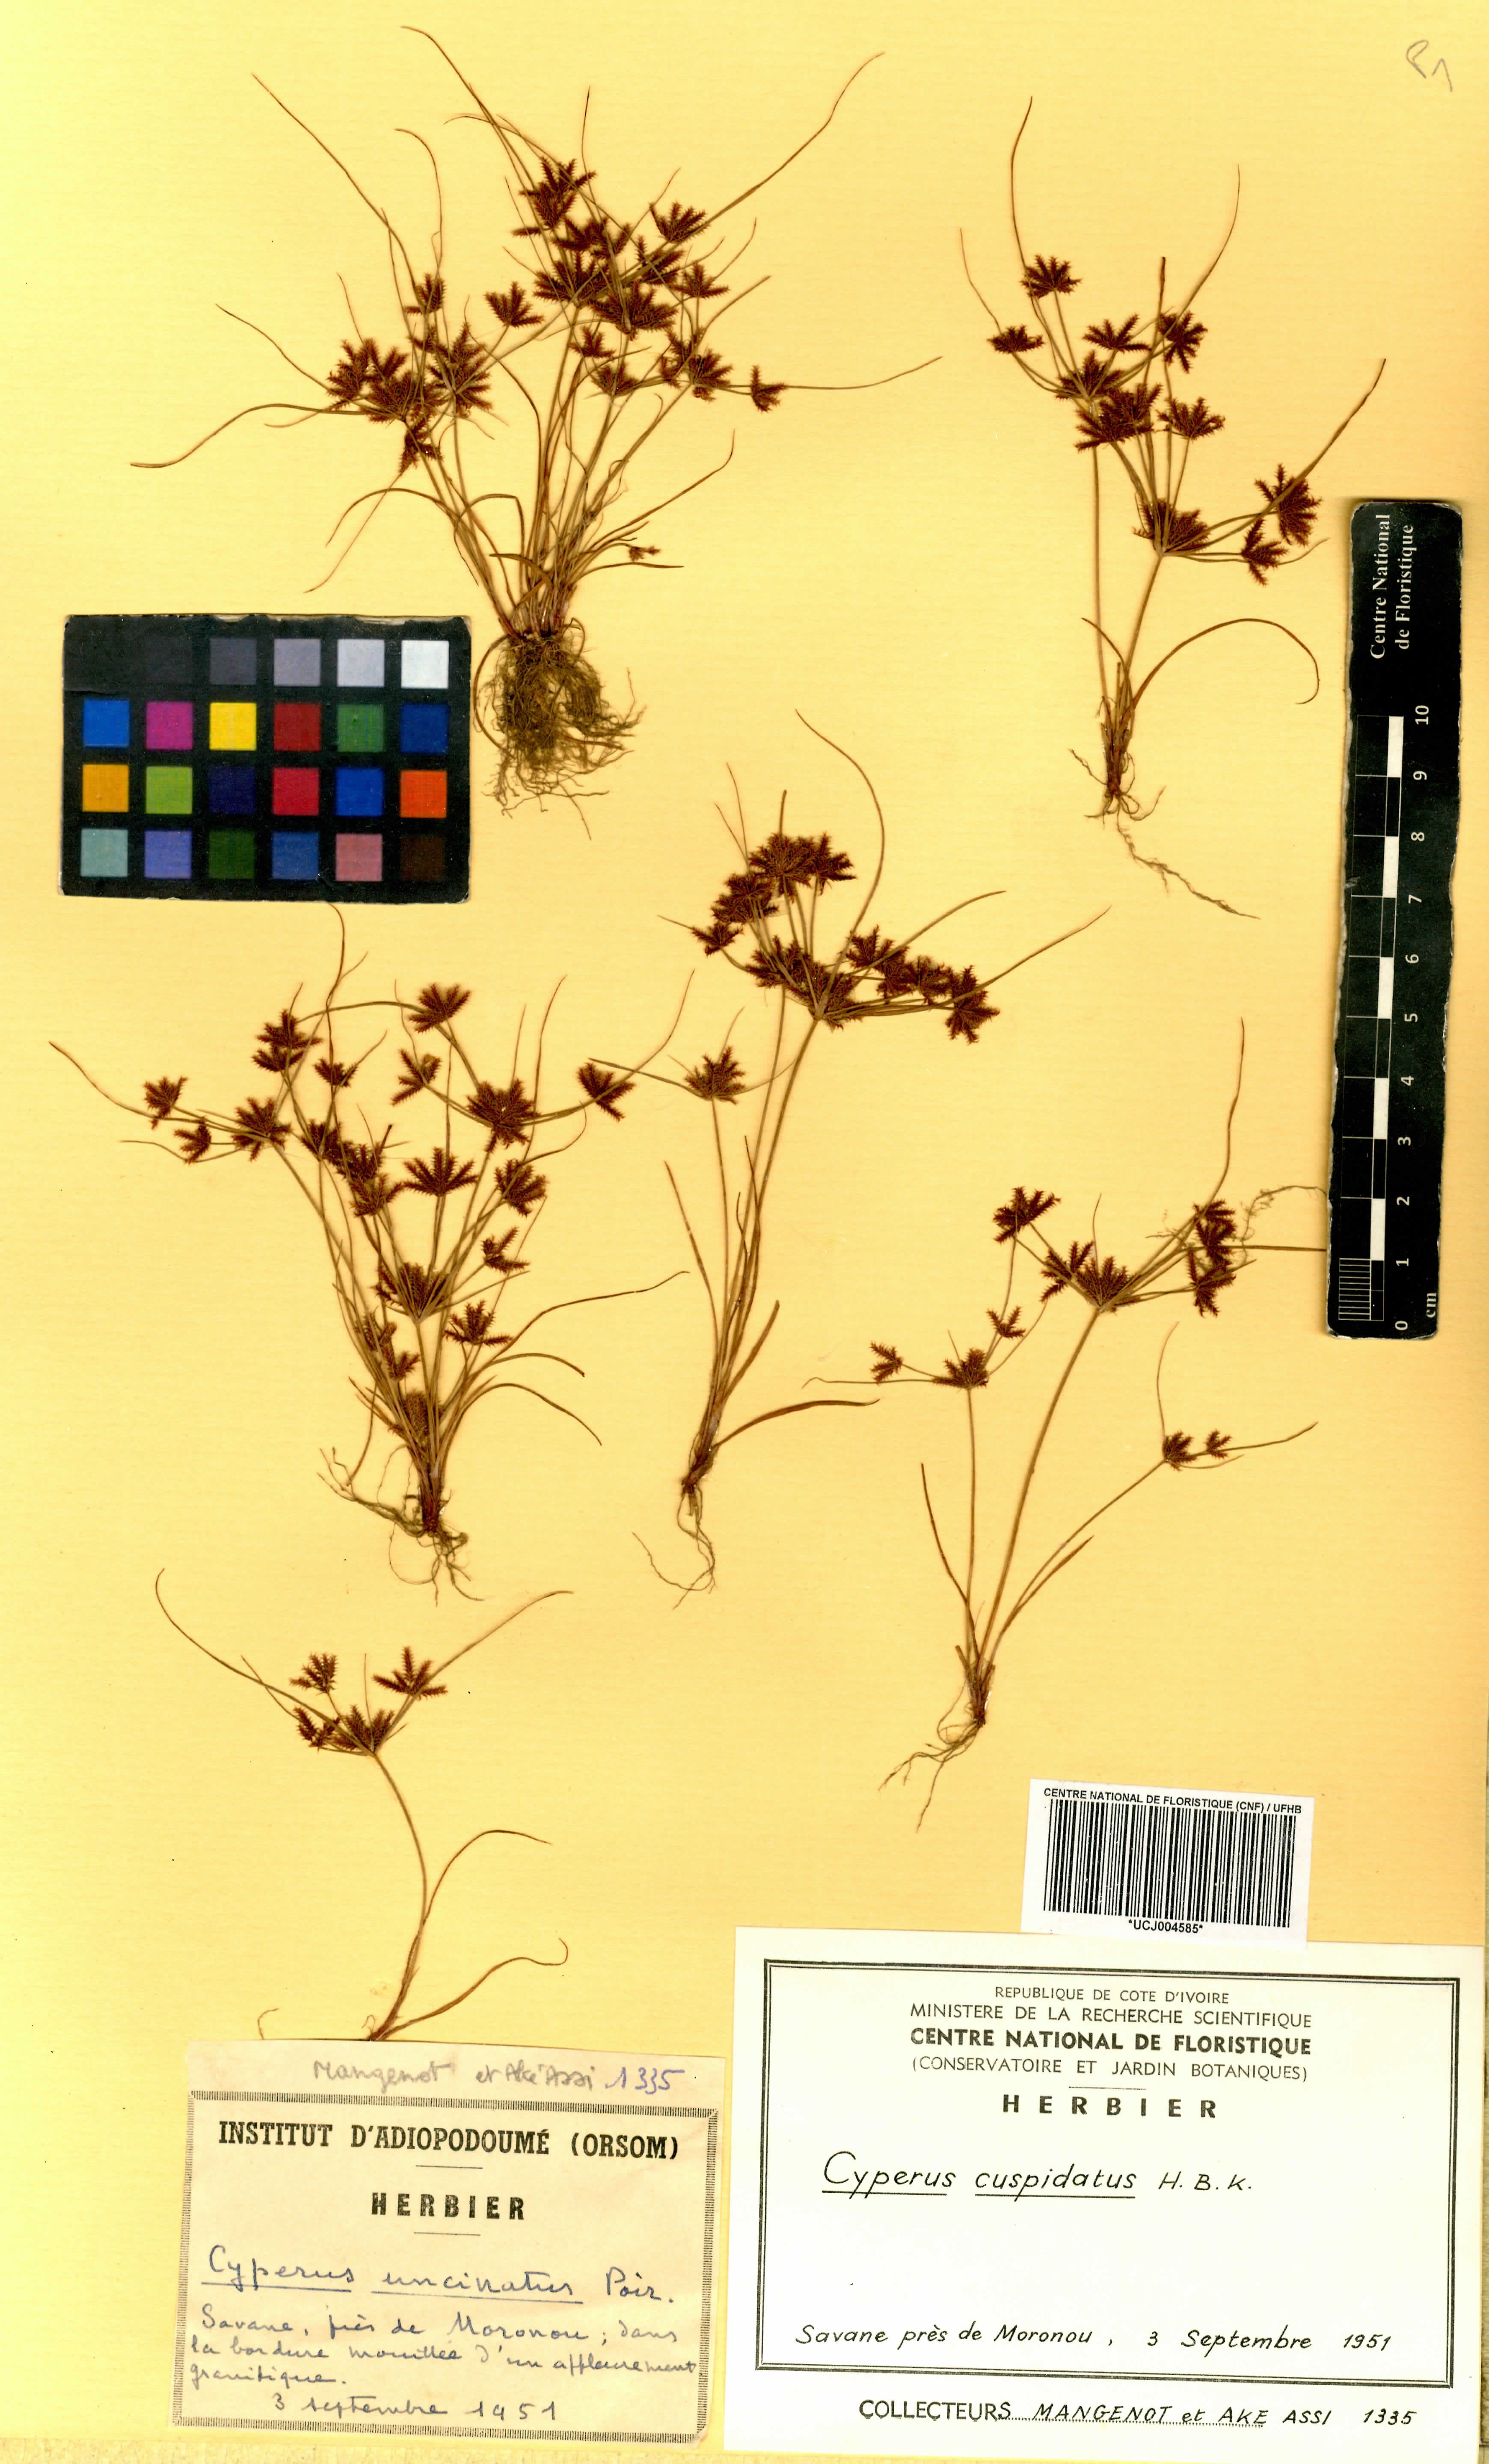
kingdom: Plantae
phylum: Tracheophyta
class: Liliopsida
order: Poales
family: Cyperaceae
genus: Cyperus
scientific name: Cyperus cuspidatus
